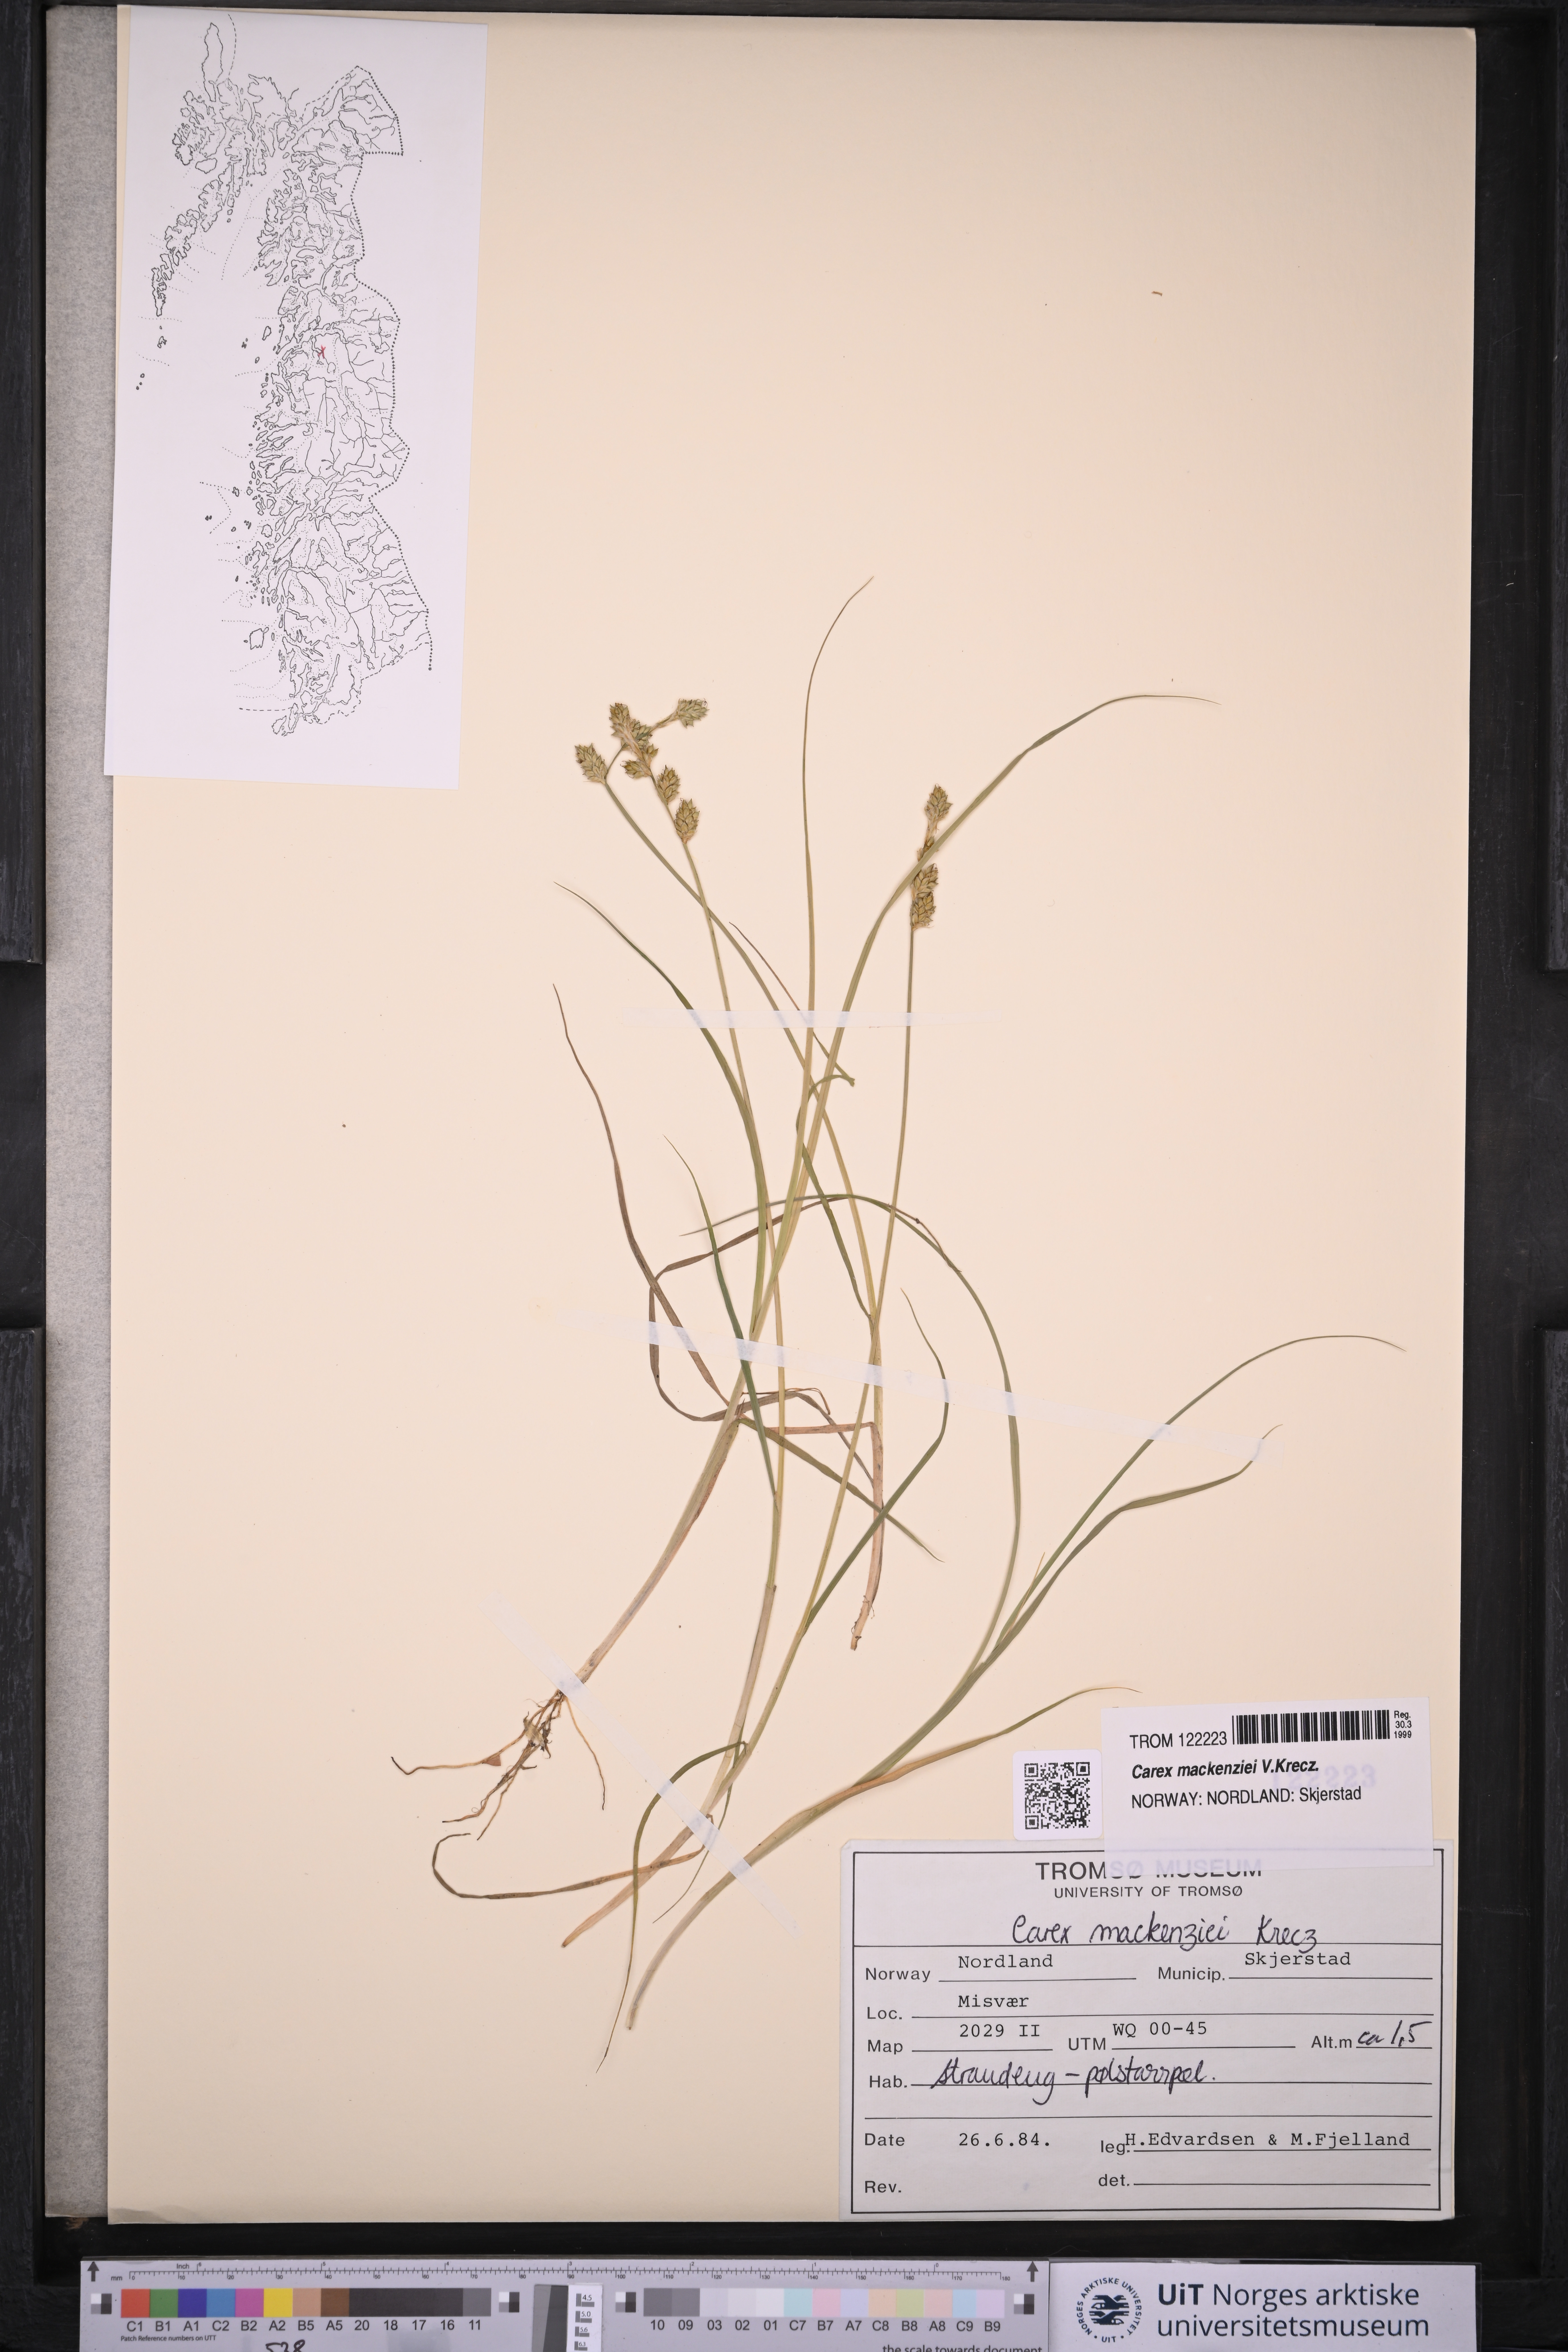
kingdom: Plantae
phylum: Tracheophyta
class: Liliopsida
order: Poales
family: Cyperaceae
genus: Carex
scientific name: Carex mackenziei
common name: Mackenzie's sedge
